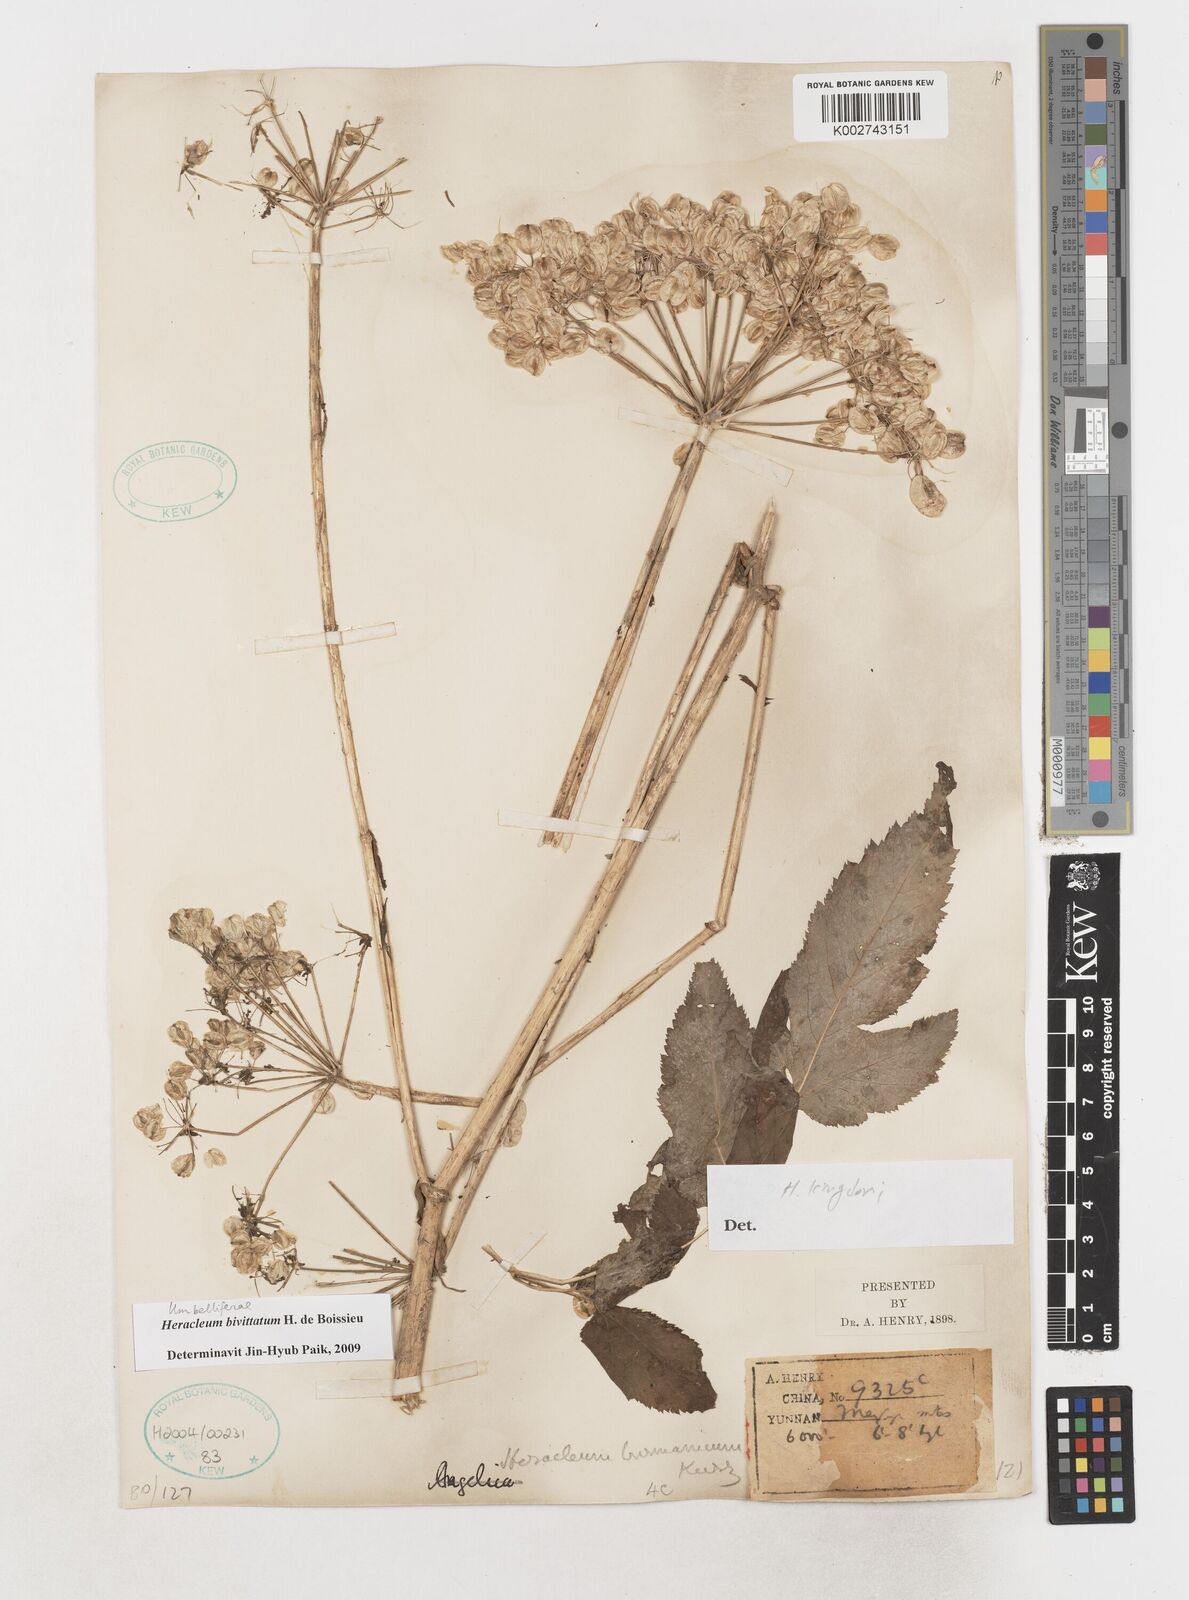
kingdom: Plantae
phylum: Tracheophyta
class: Magnoliopsida
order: Apiales
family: Apiaceae
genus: Tetrataenium
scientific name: Tetrataenium bivittatum
